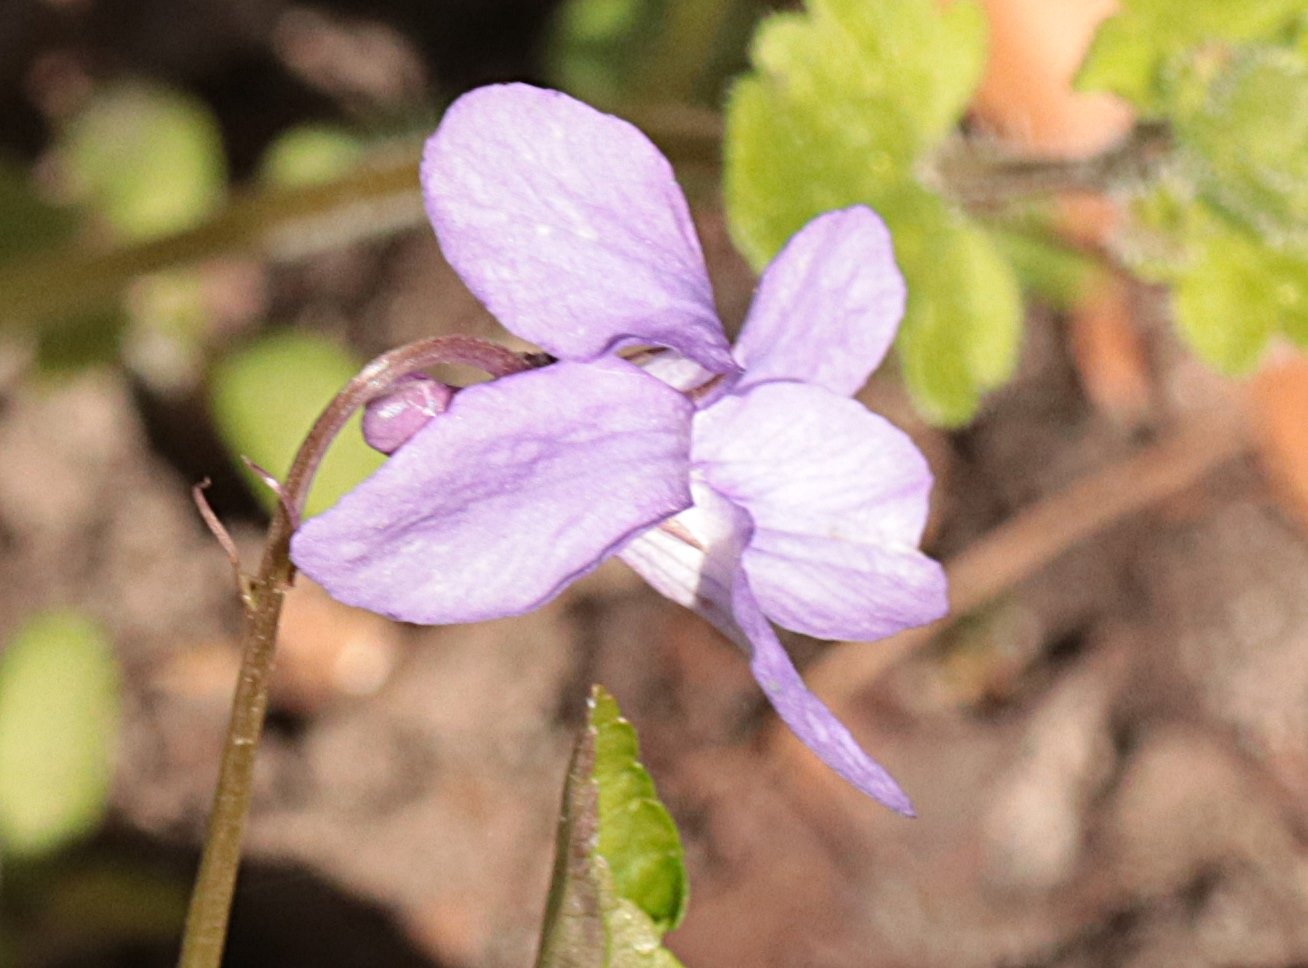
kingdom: Plantae
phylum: Tracheophyta
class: Magnoliopsida
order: Malpighiales
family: Violaceae
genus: Viola
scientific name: Viola reichenbachiana
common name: Skov-viol
